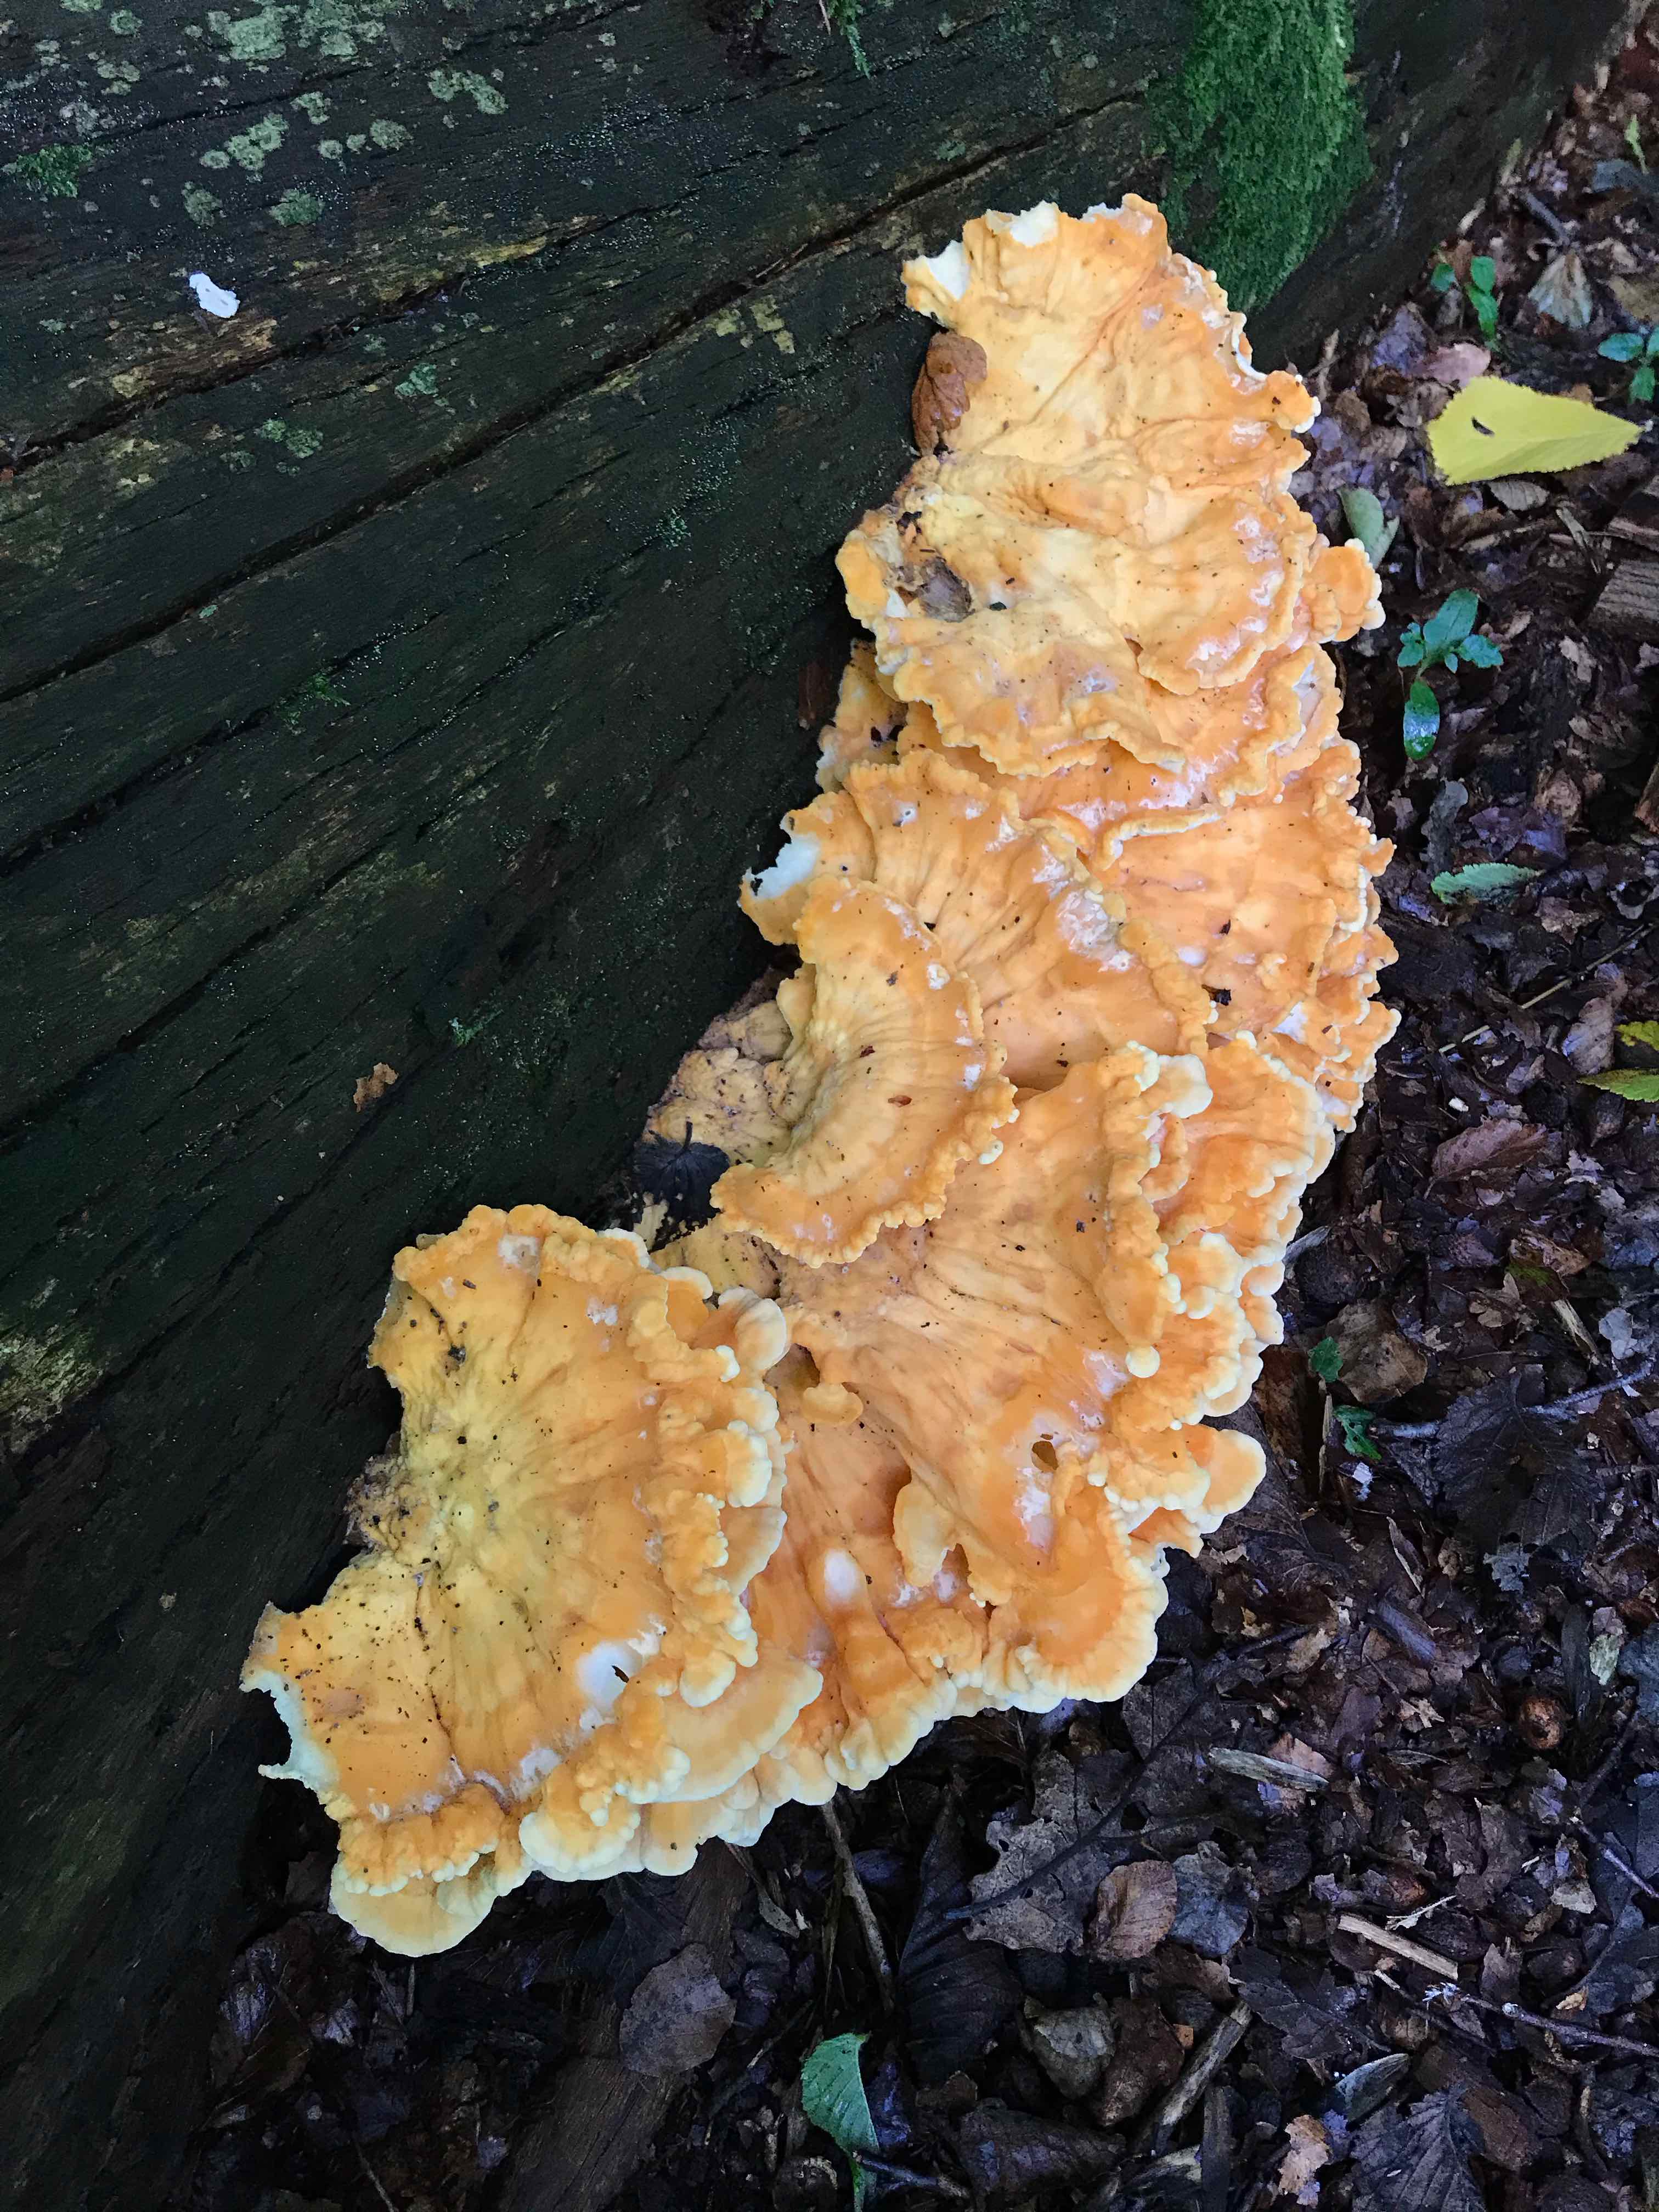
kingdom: Fungi
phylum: Basidiomycota
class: Agaricomycetes
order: Polyporales
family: Laetiporaceae
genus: Laetiporus
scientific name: Laetiporus sulphureus
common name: svovlporesvamp
